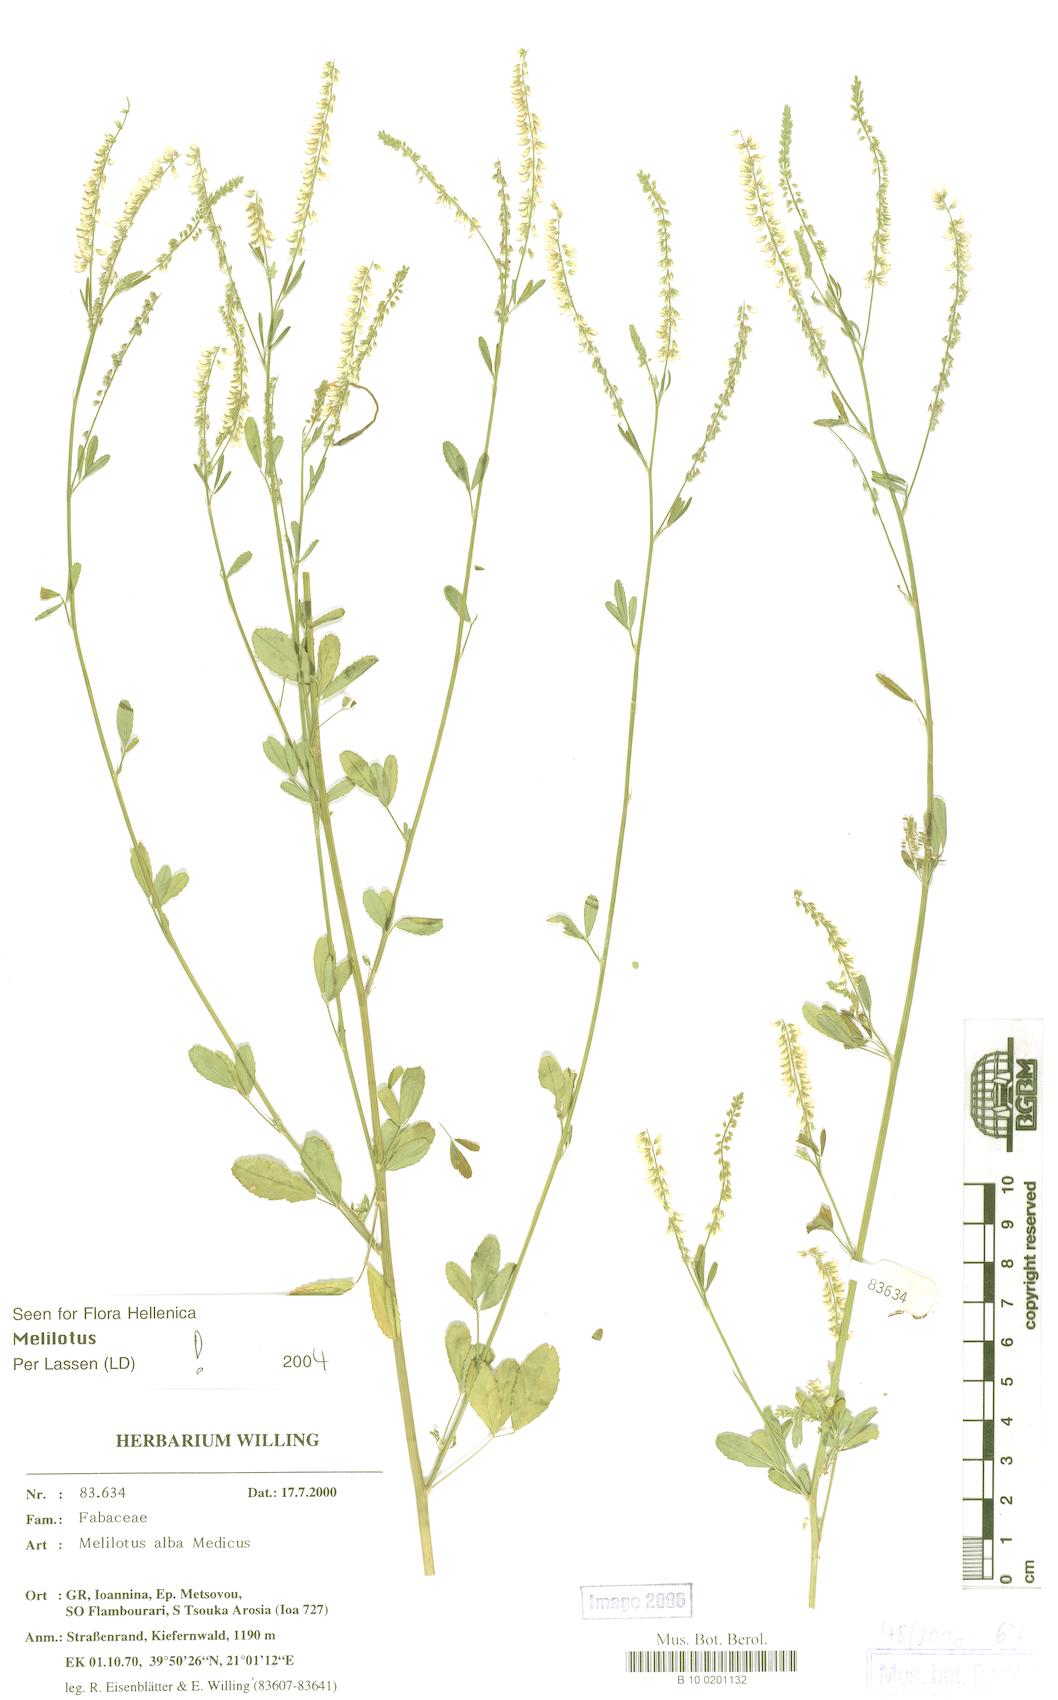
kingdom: Plantae
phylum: Tracheophyta
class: Magnoliopsida
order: Fabales
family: Fabaceae
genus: Melilotus
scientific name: Melilotus albus
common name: White melilot
